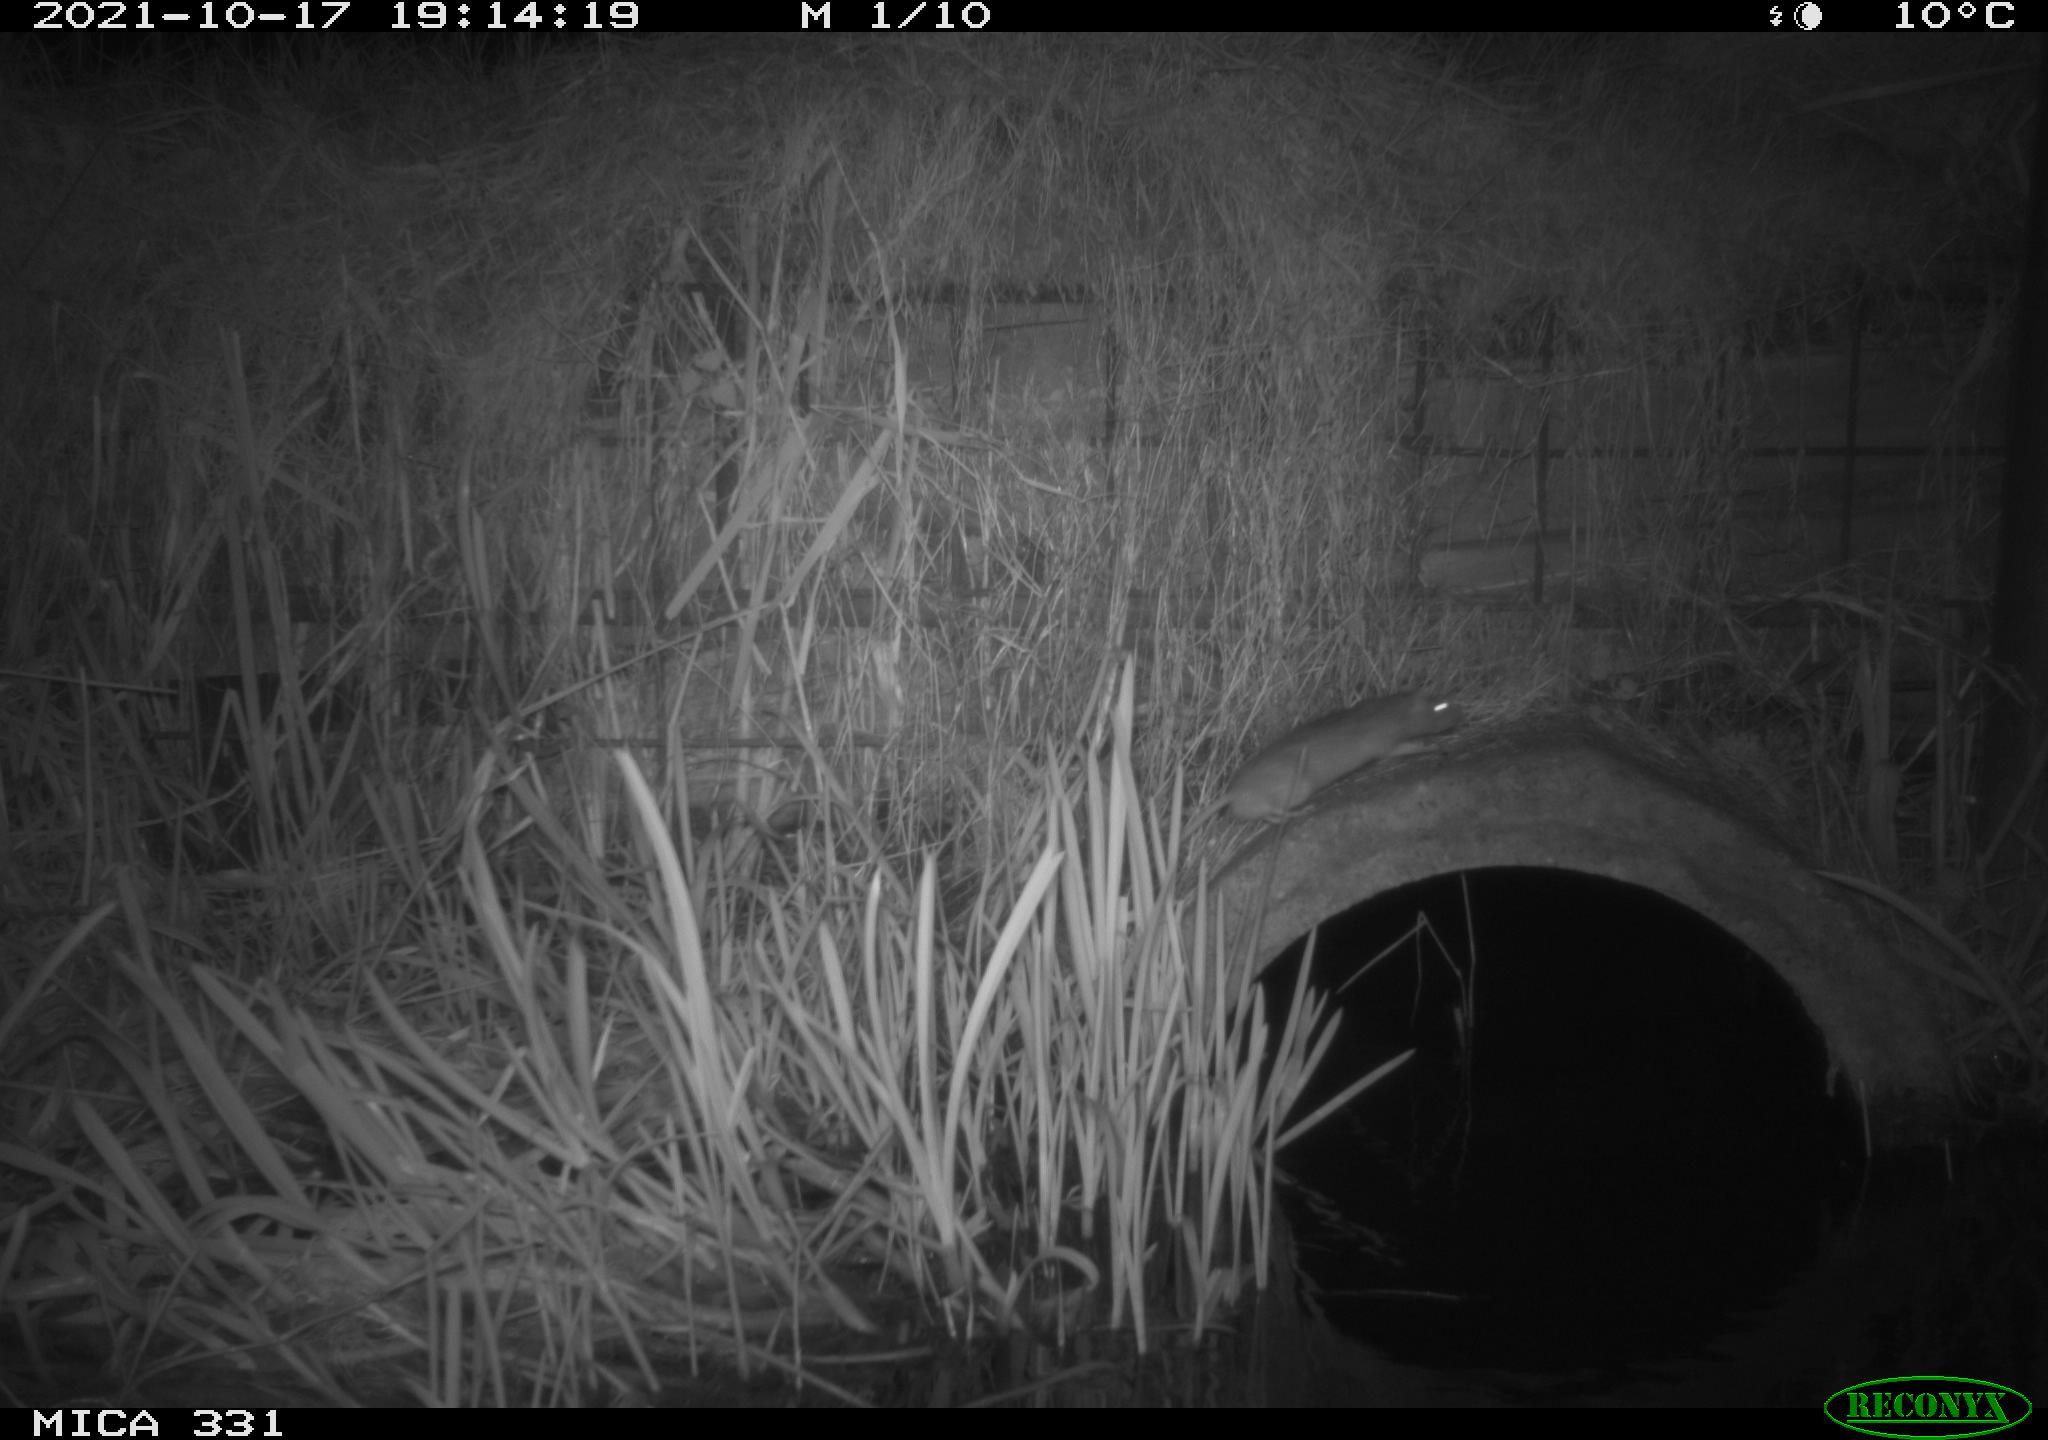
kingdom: Animalia
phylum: Chordata
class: Mammalia
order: Rodentia
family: Muridae
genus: Rattus
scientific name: Rattus norvegicus
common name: Brown rat
